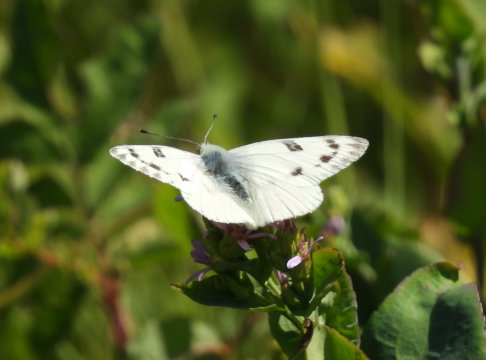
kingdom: Animalia
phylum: Arthropoda
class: Insecta
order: Lepidoptera
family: Pieridae
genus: Pontia
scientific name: Pontia occidentalis
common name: Western White
